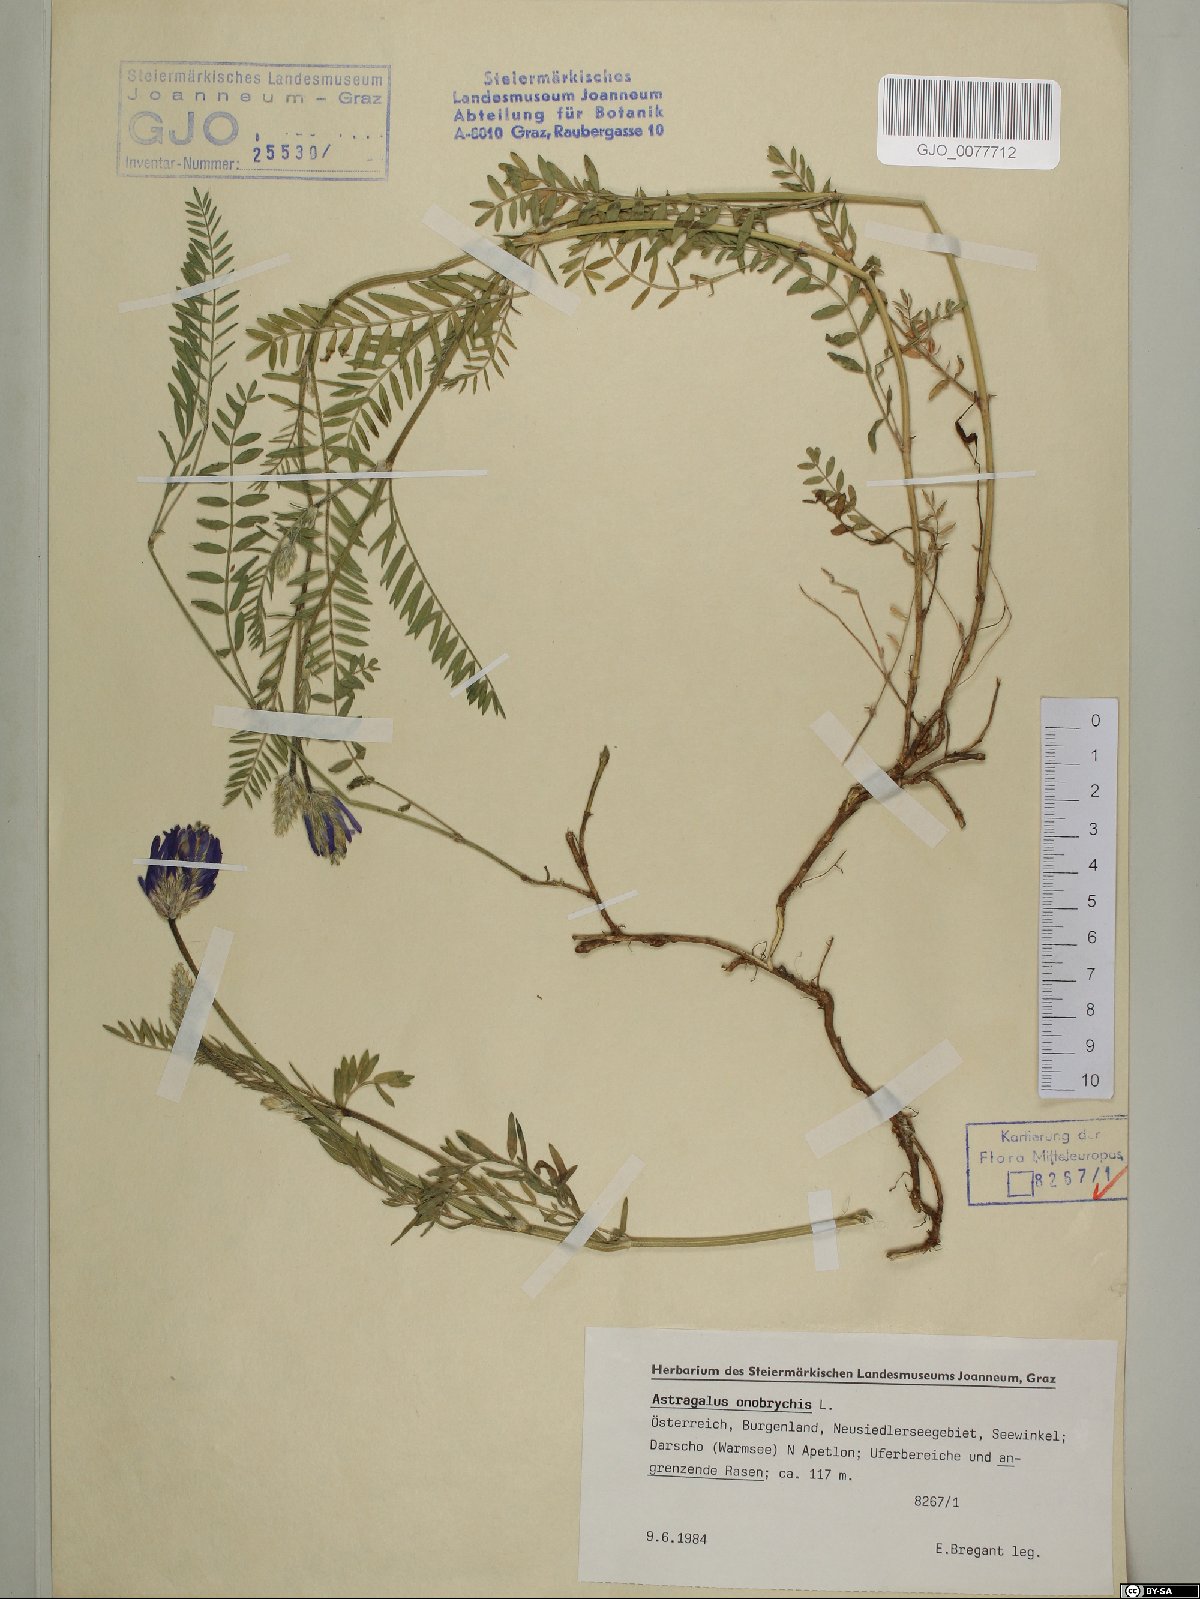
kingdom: Plantae
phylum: Tracheophyta
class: Magnoliopsida
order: Fabales
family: Fabaceae
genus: Astragalus
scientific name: Astragalus onobrychis
